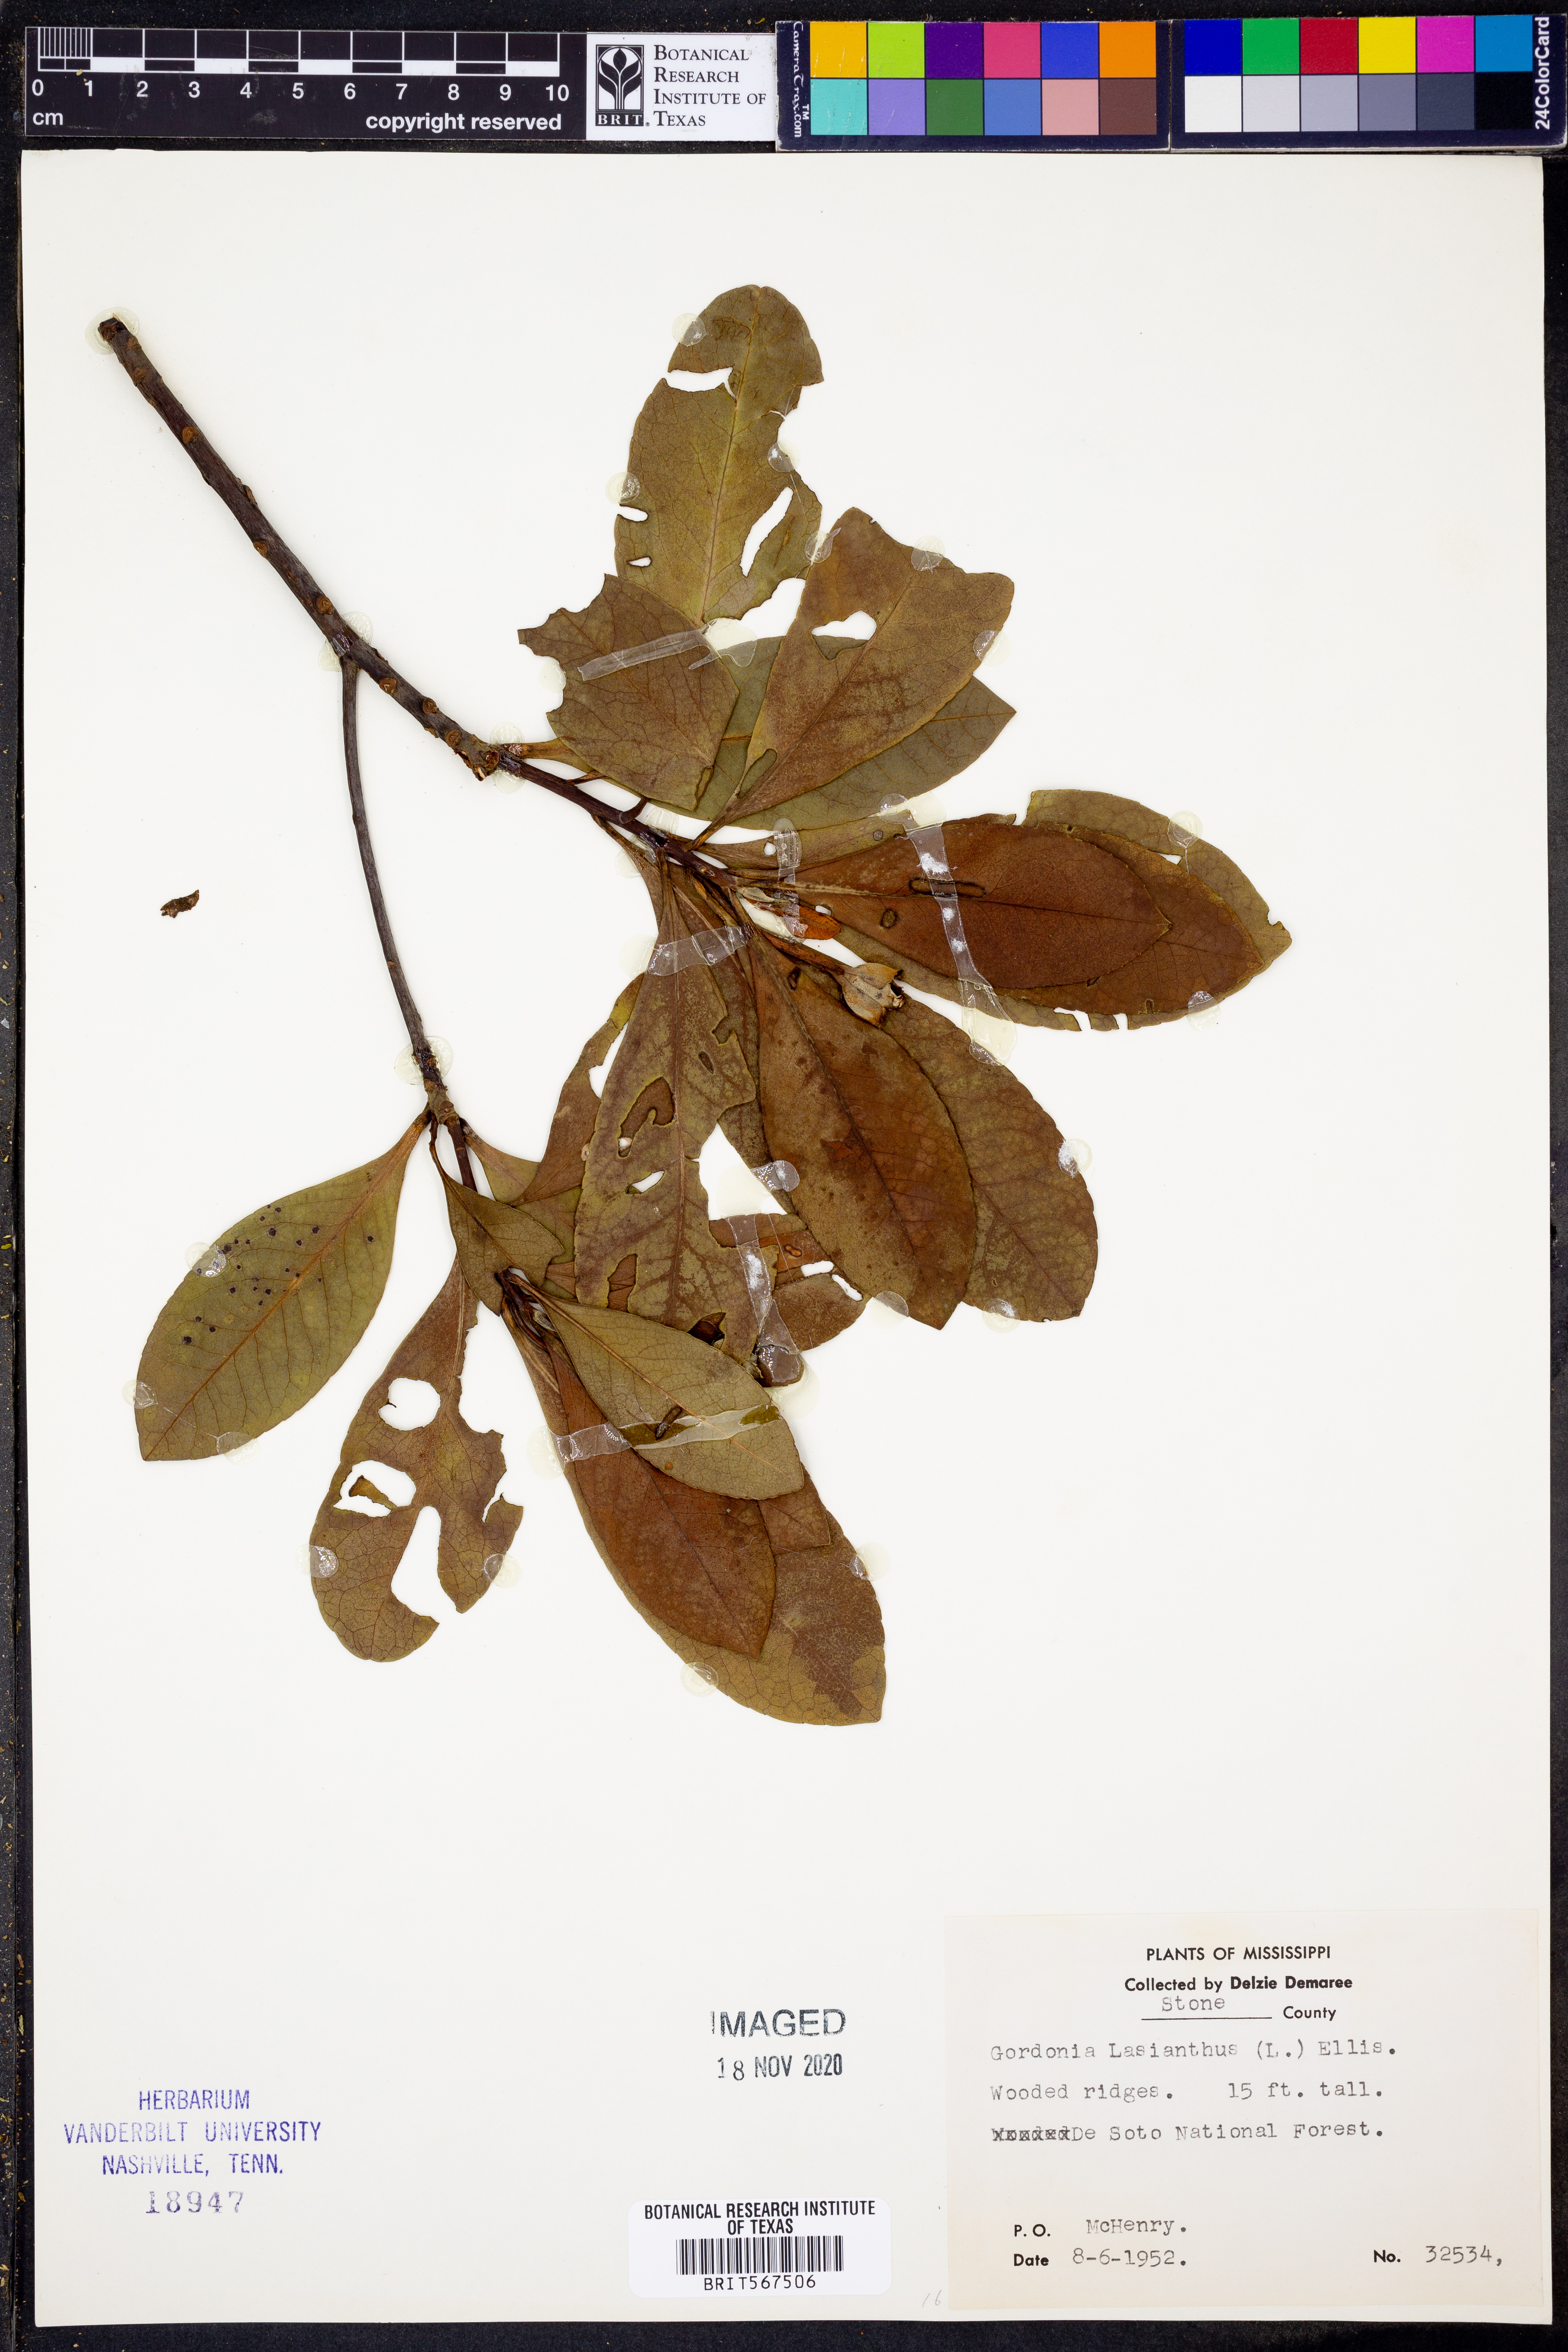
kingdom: Plantae
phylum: Tracheophyta
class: Magnoliopsida
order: Ericales
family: Theaceae
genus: Gordonia
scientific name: Gordonia lasianthus
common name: Loblolly bay
